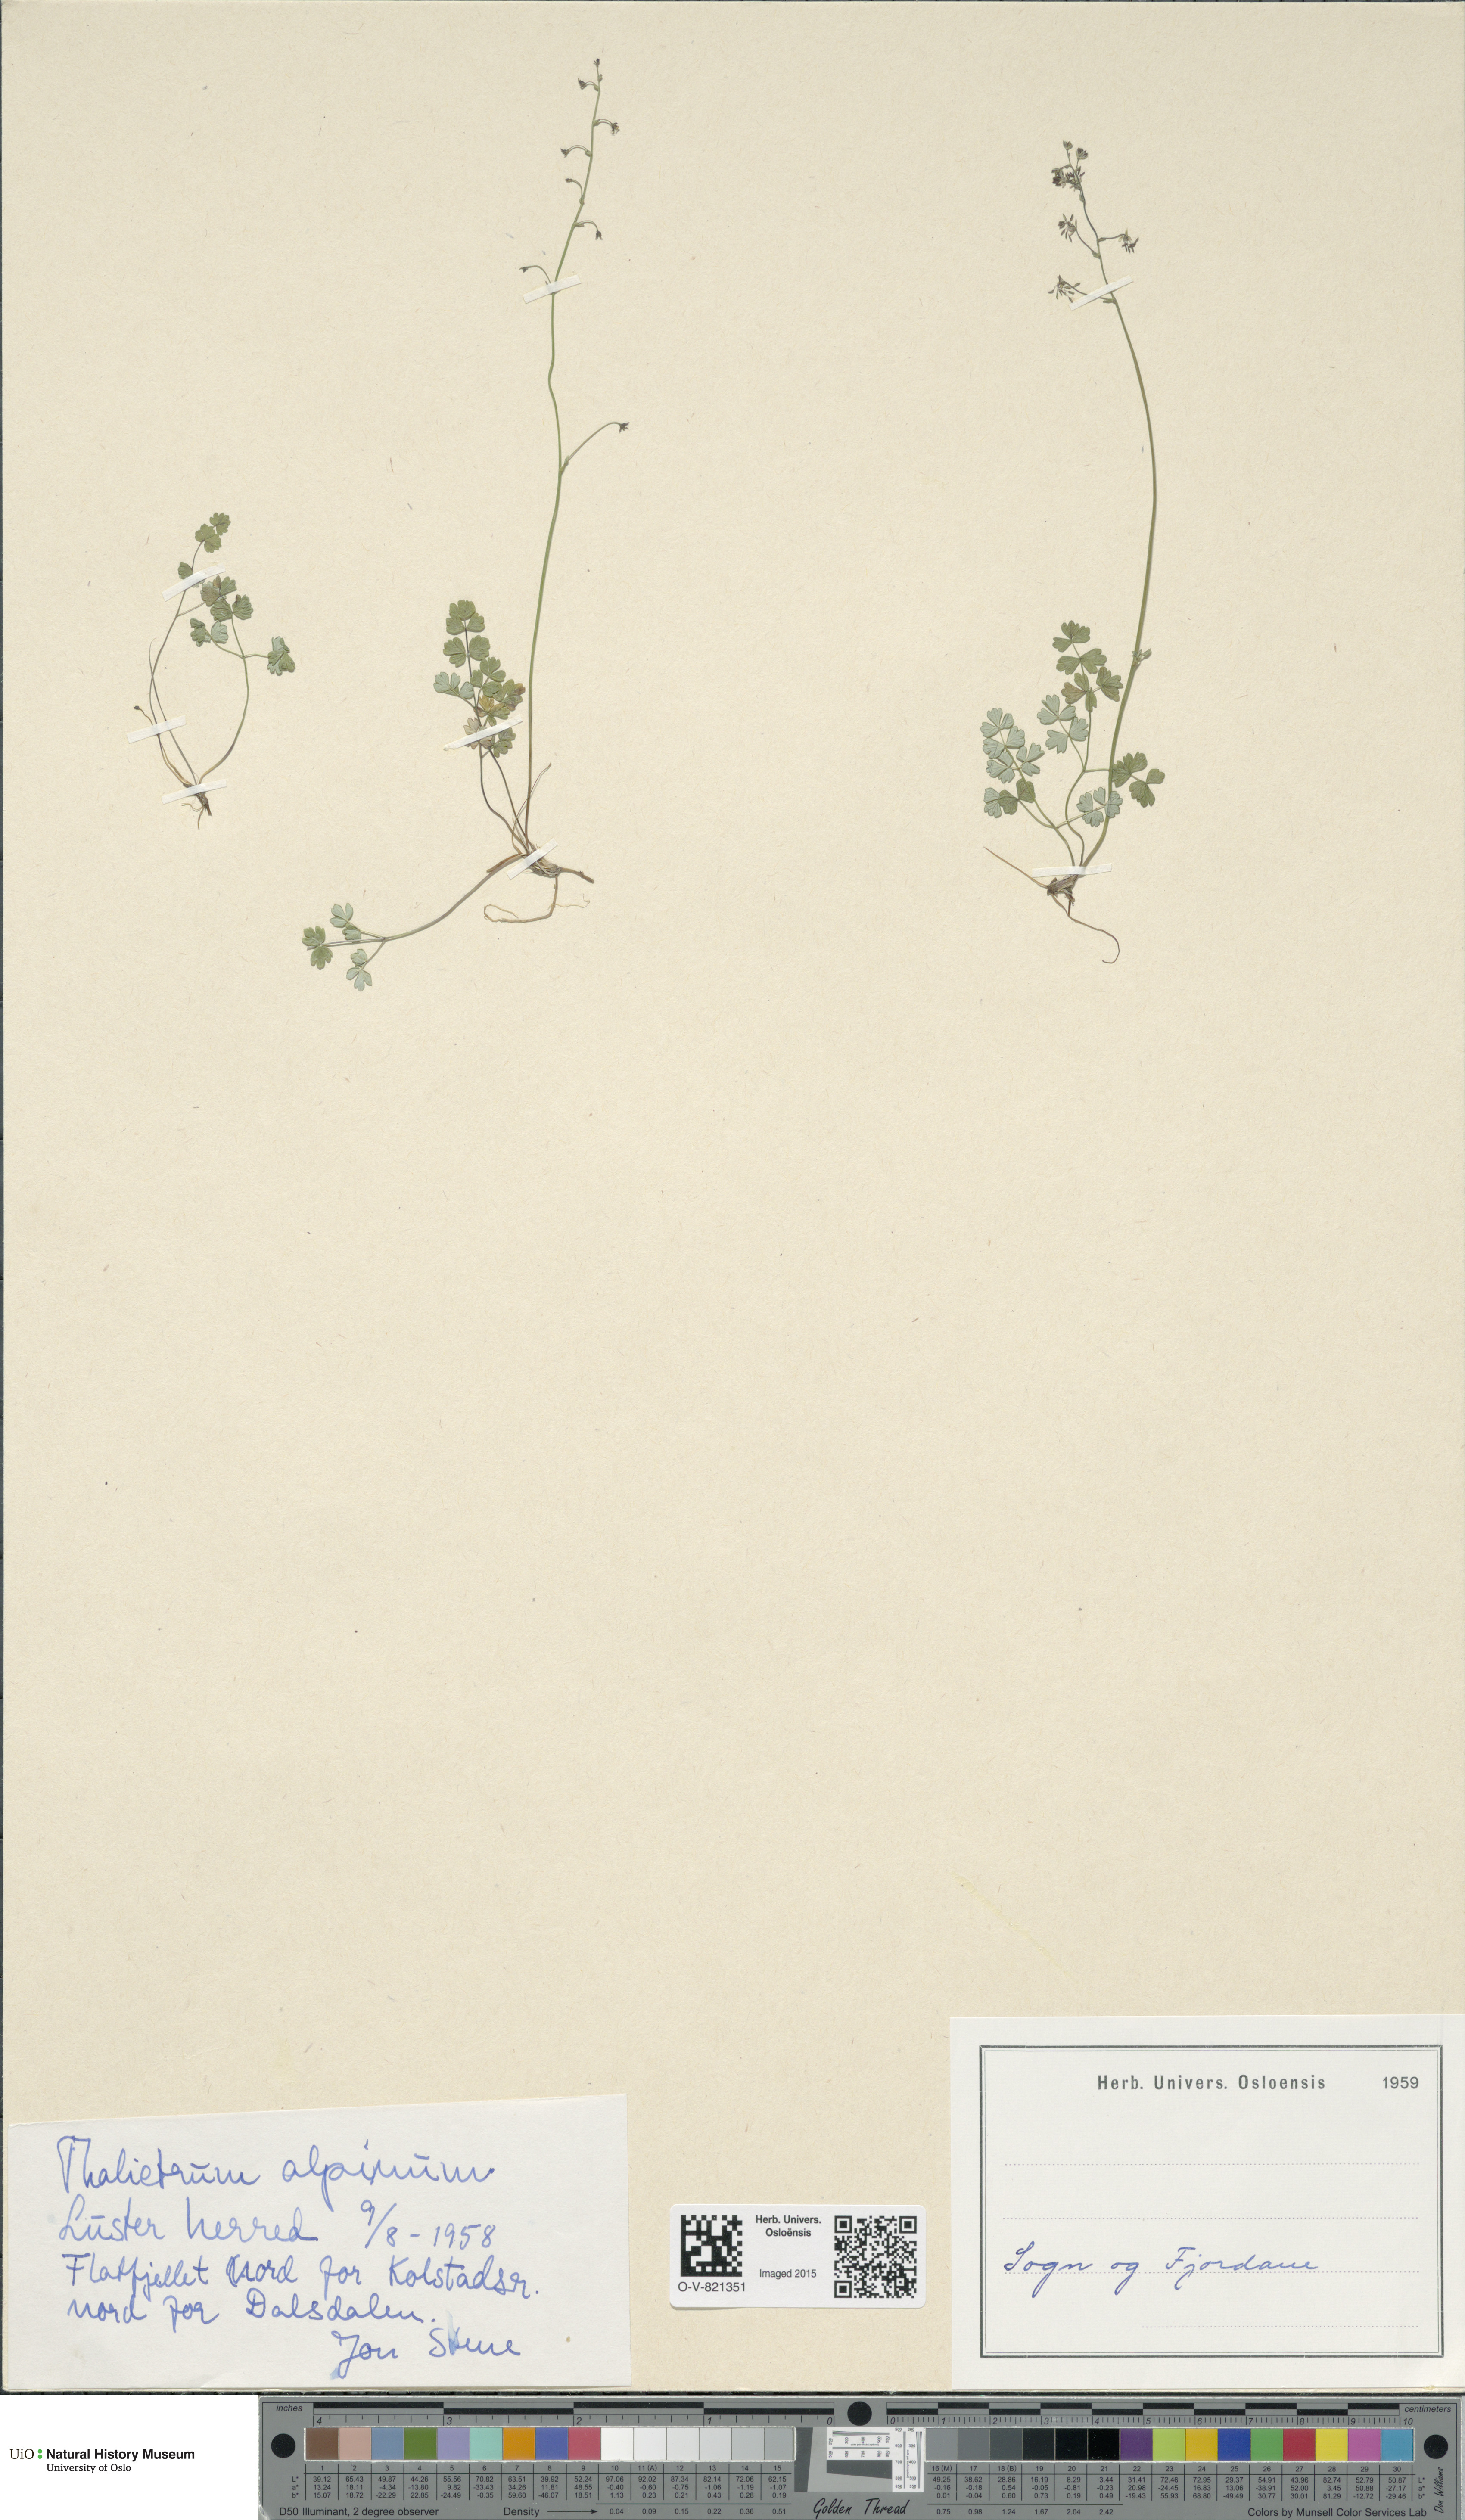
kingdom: Plantae
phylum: Tracheophyta
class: Magnoliopsida
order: Ranunculales
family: Ranunculaceae
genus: Thalictrum
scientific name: Thalictrum alpinum
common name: Alpine meadow-rue
